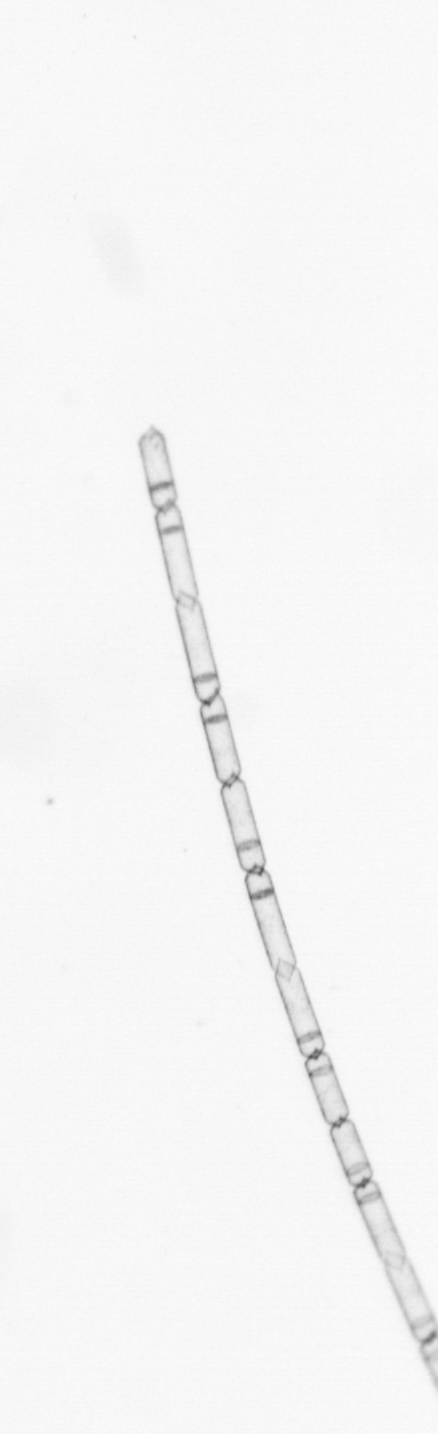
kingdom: Chromista
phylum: Ochrophyta
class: Bacillariophyceae
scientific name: Bacillariophyceae
